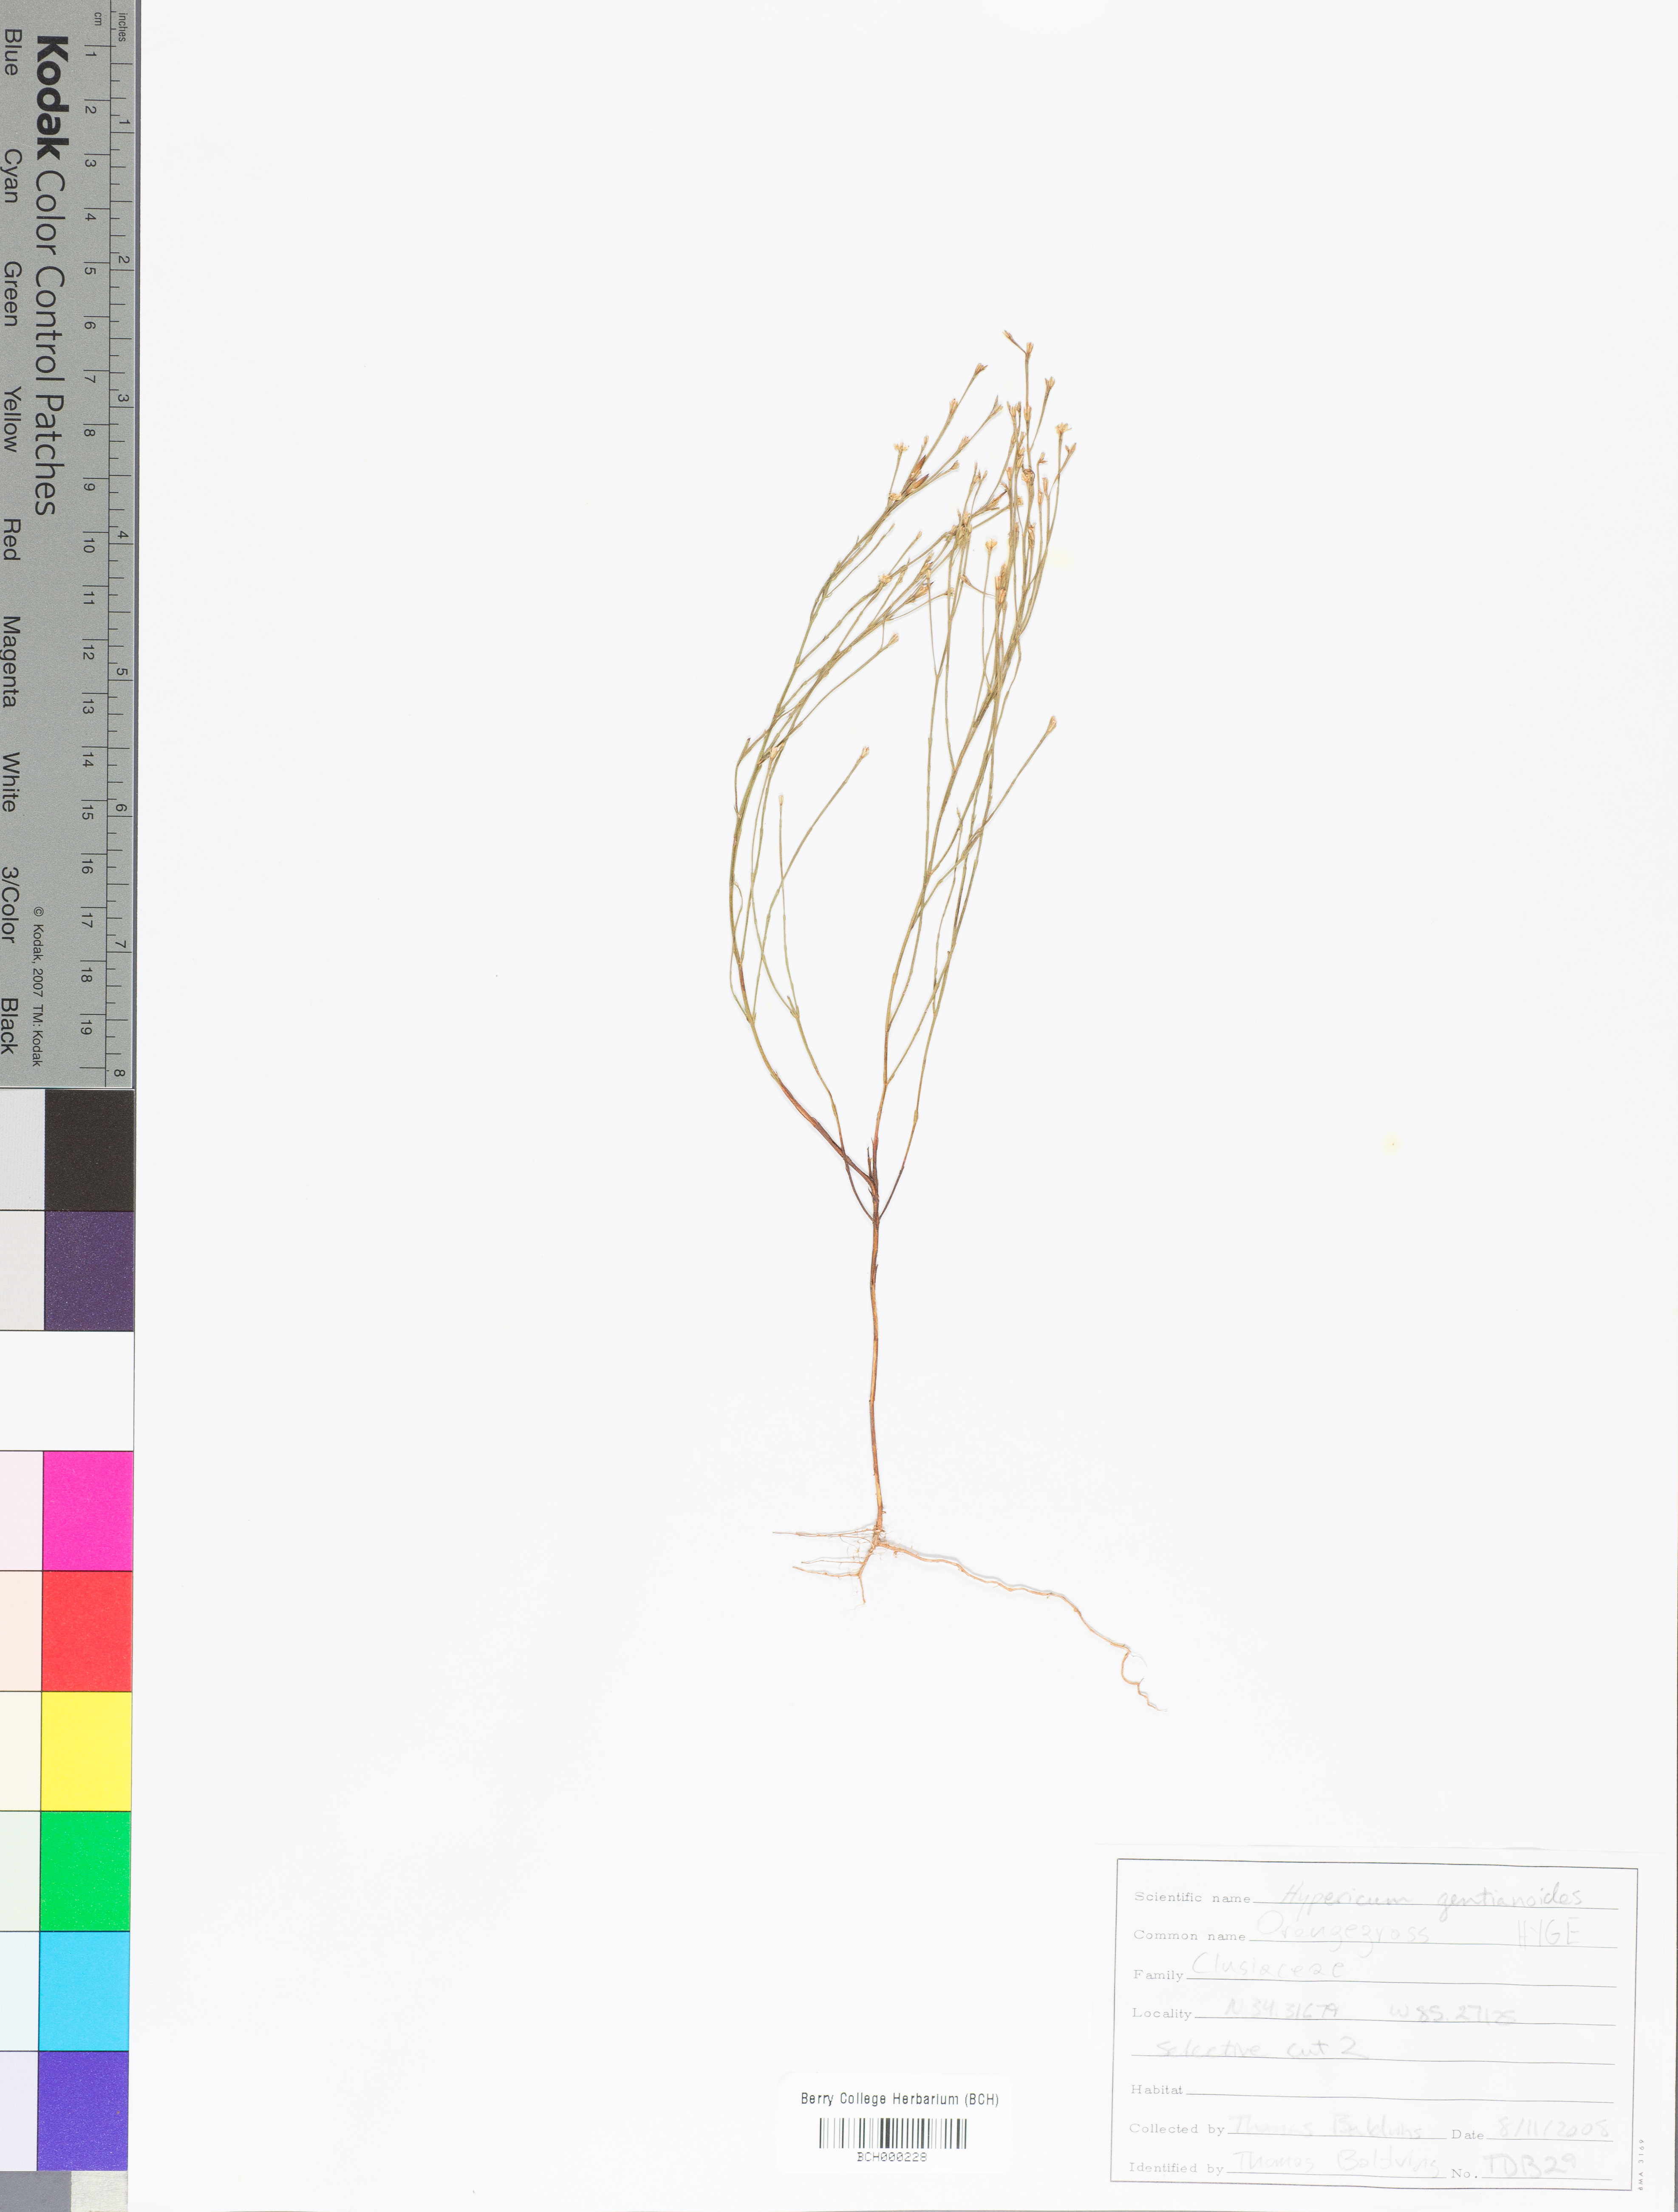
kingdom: Plantae
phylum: Tracheophyta
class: Magnoliopsida
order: Malpighiales
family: Hypericaceae
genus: Hypericum
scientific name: Hypericum gentianoides
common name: Gentian-leaved st. john's-wort
